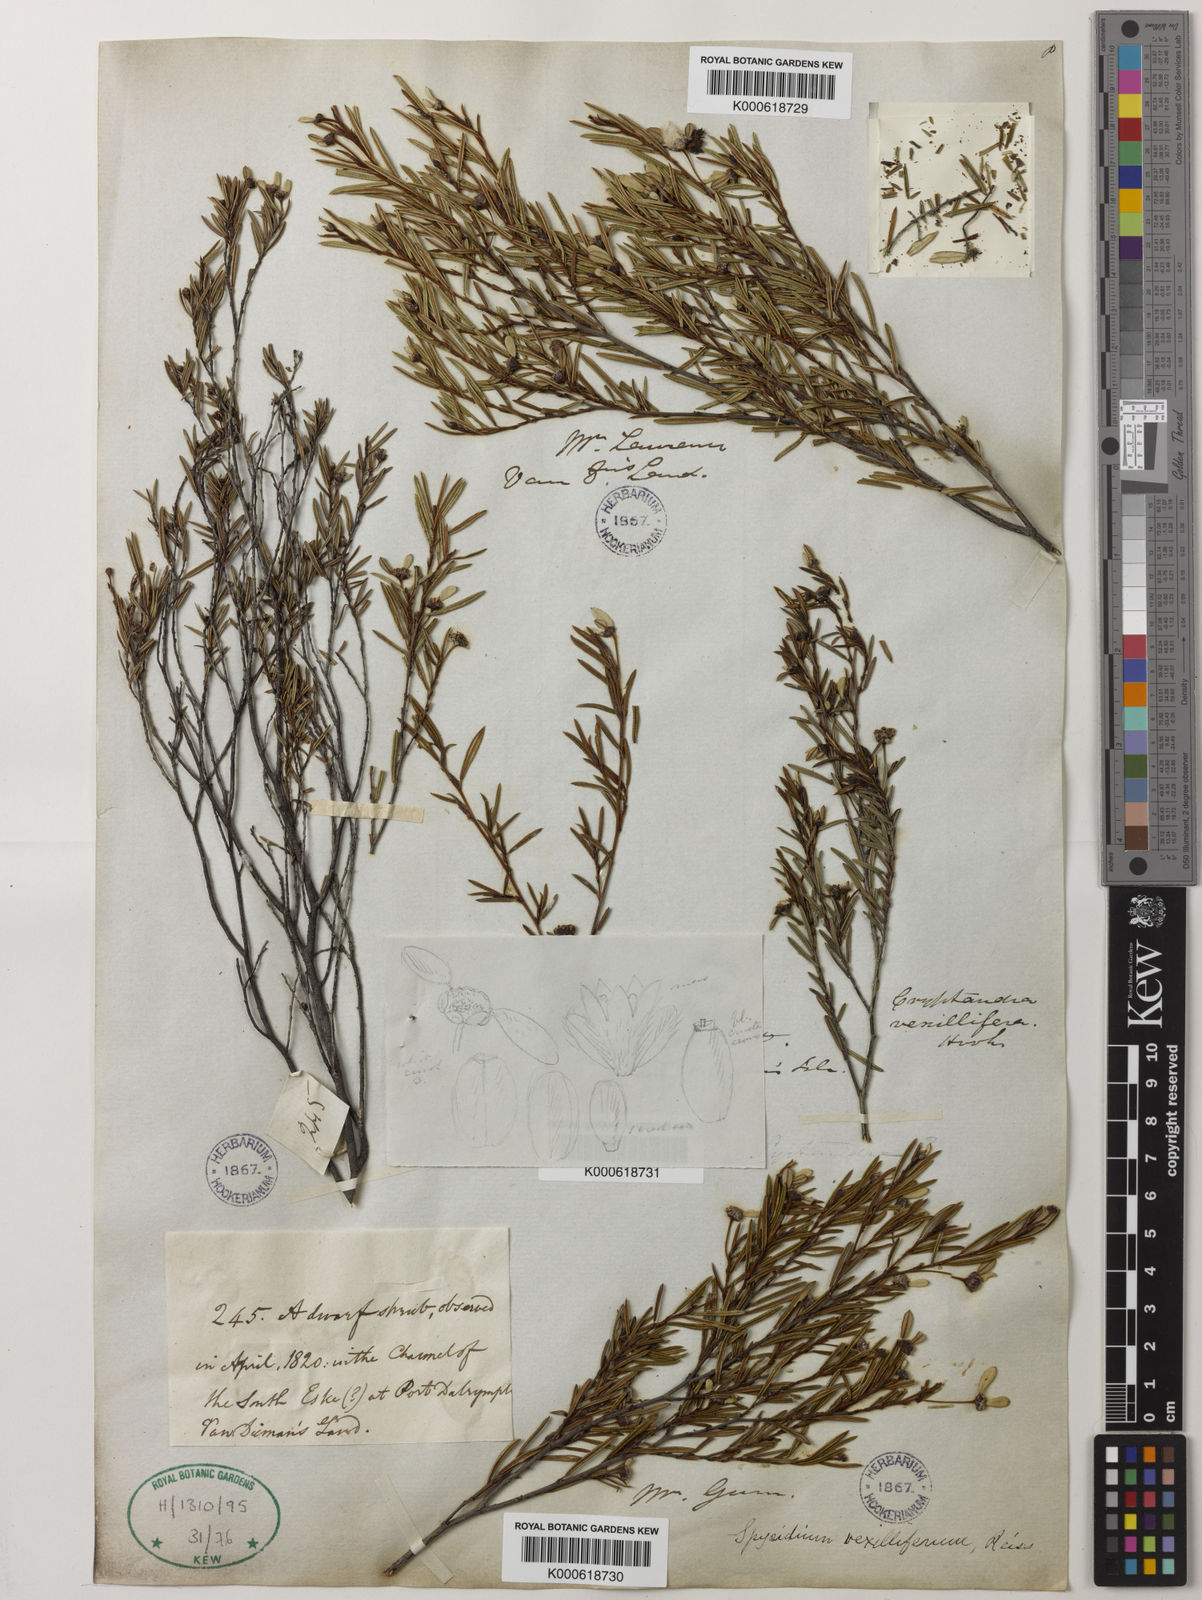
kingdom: Plantae
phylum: Tracheophyta
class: Magnoliopsida
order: Rosales
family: Rhamnaceae
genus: Spyridium
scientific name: Spyridium vexilliferum
